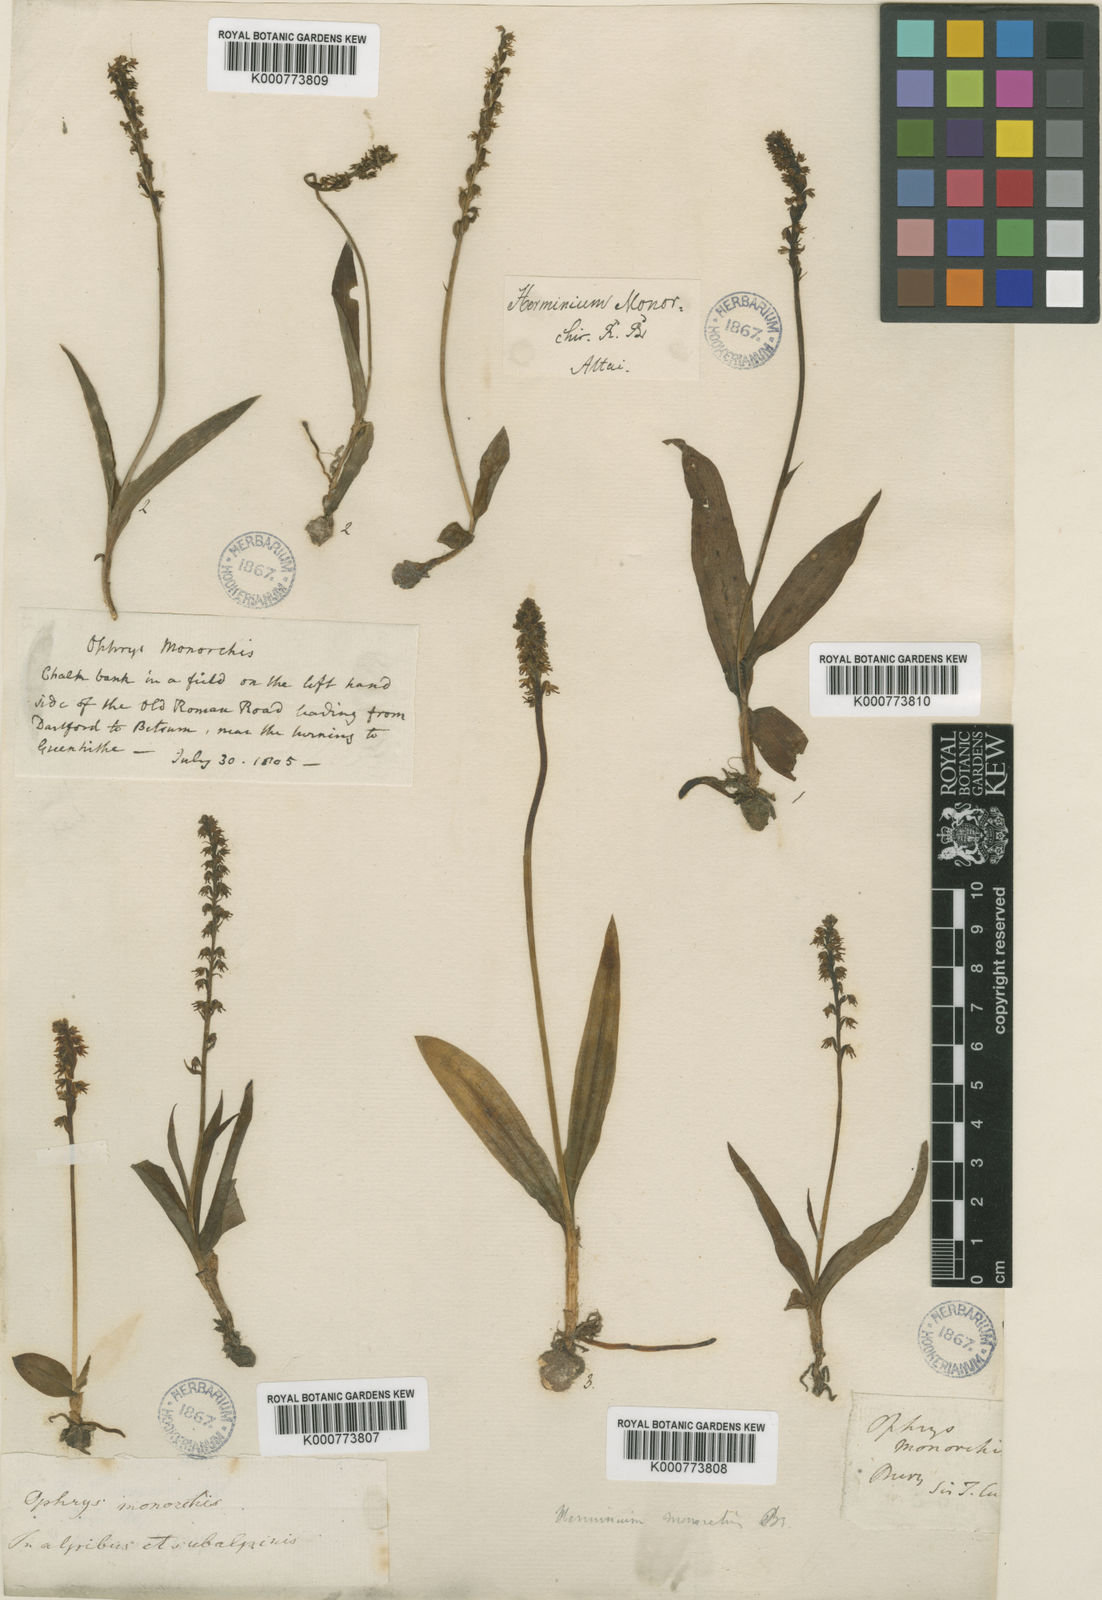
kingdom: Plantae
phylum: Tracheophyta
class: Liliopsida
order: Asparagales
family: Orchidaceae
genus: Herminium
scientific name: Herminium monorchis
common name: Musk orchid
